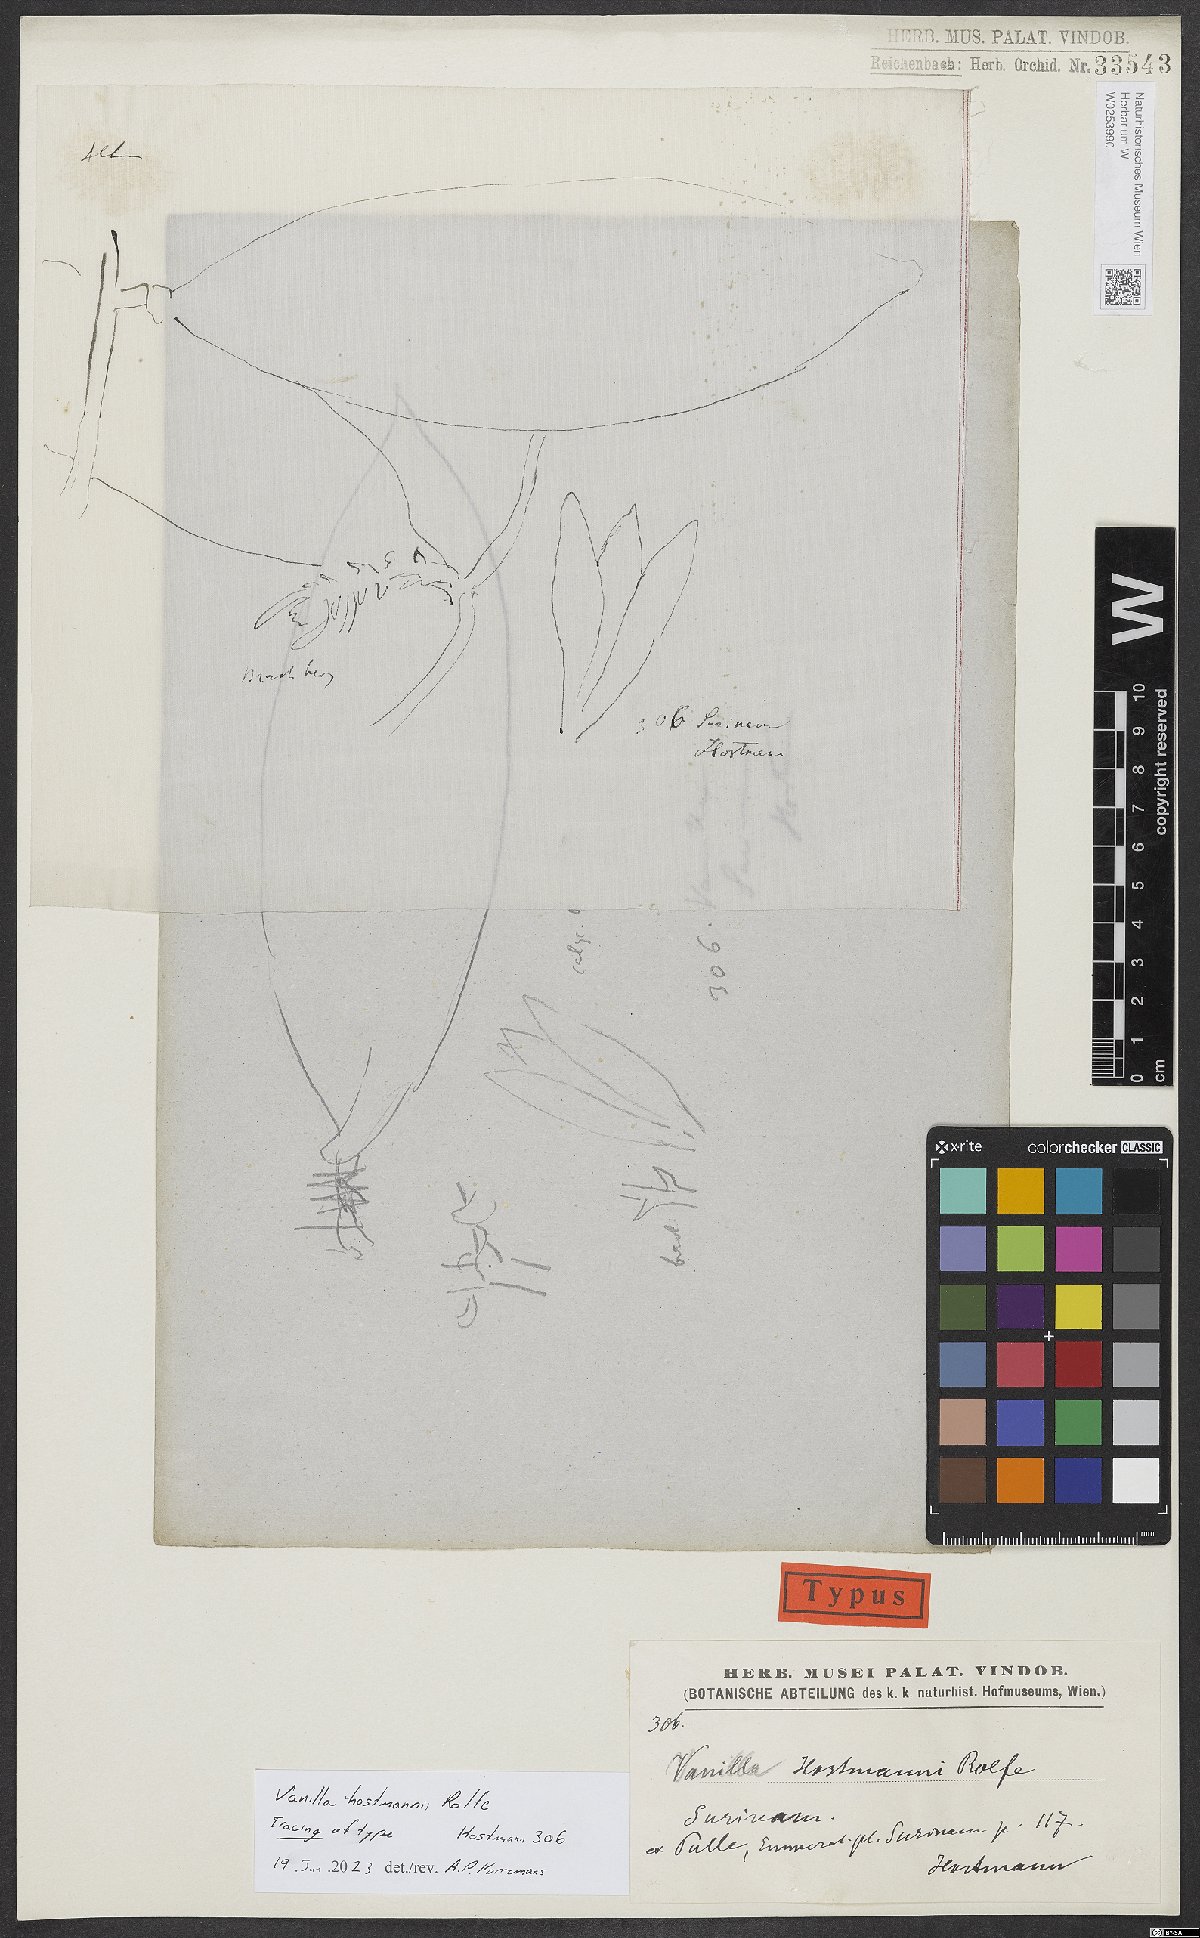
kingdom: Plantae
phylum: Tracheophyta
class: Liliopsida
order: Asparagales
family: Orchidaceae
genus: Vanilla
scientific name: Vanilla
